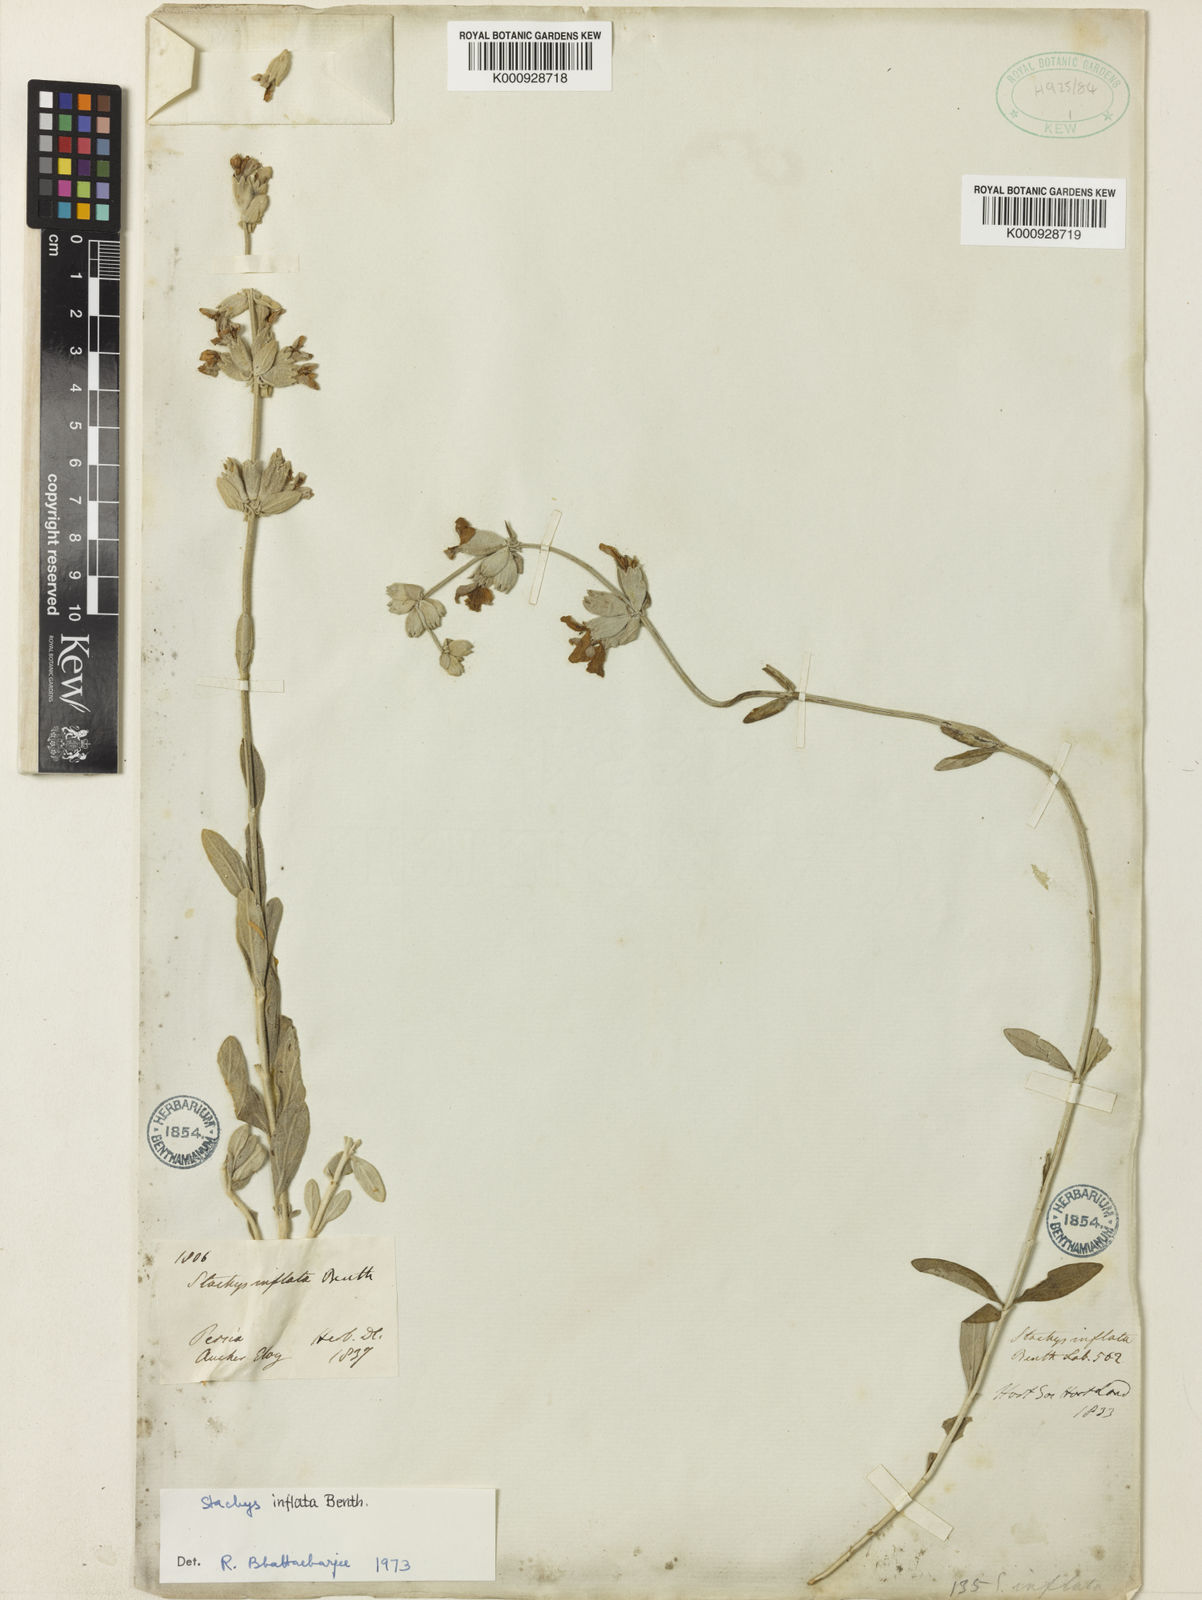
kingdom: Plantae
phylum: Tracheophyta
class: Magnoliopsida
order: Lamiales
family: Lamiaceae
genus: Stachys
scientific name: Stachys inflata
